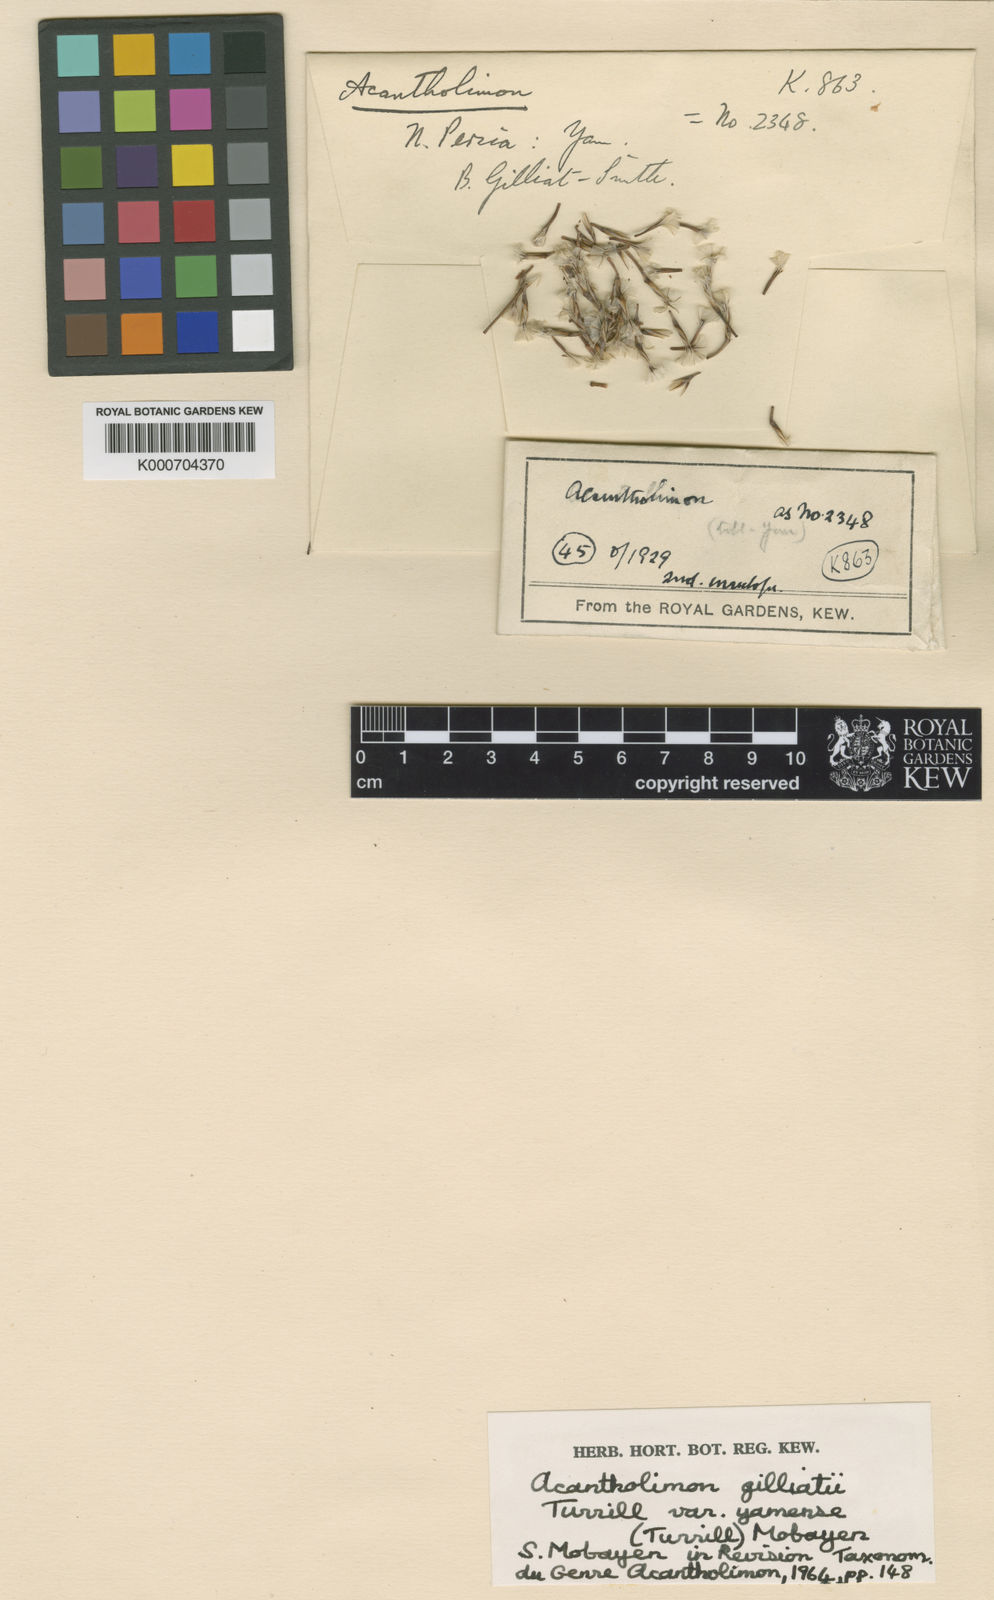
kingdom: Plantae
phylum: Tracheophyta
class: Magnoliopsida
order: Caryophyllales
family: Plumbaginaceae
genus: Acantholimon
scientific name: Acantholimon yamense
